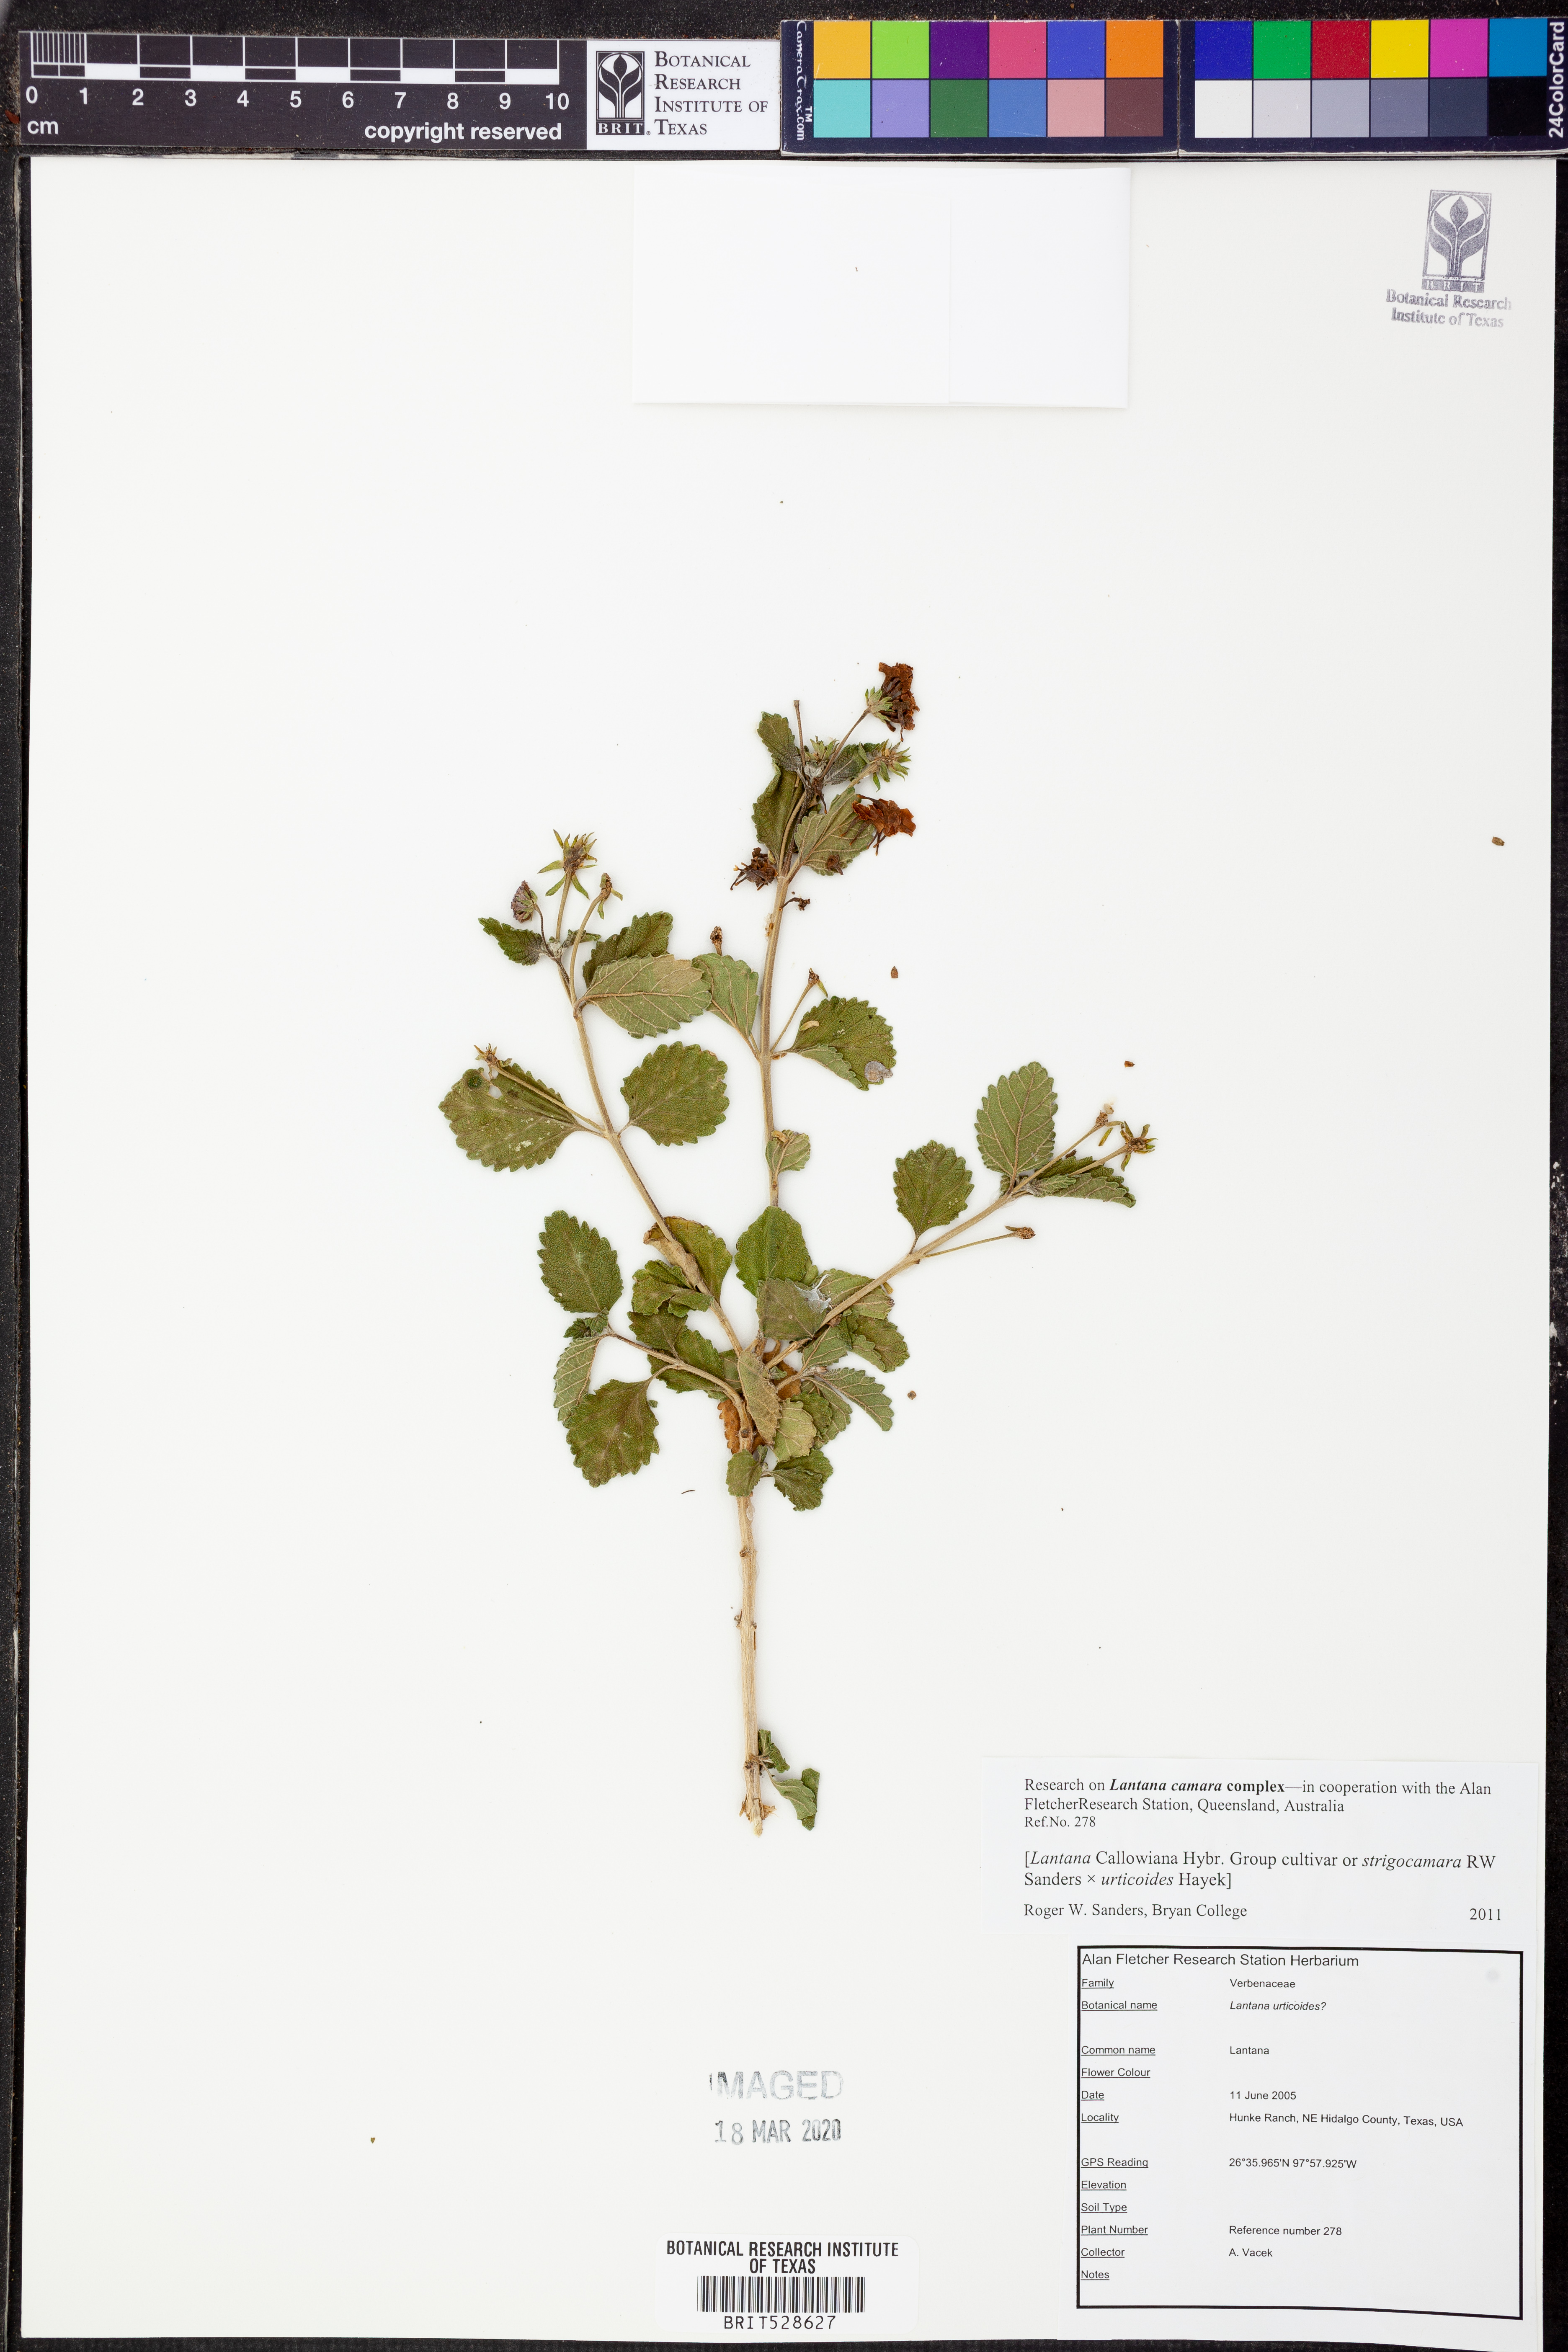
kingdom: Plantae
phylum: Tracheophyta
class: Magnoliopsida
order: Lamiales
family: Verbenaceae
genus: Lantana
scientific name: Lantana strigocamara
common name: Lantana
